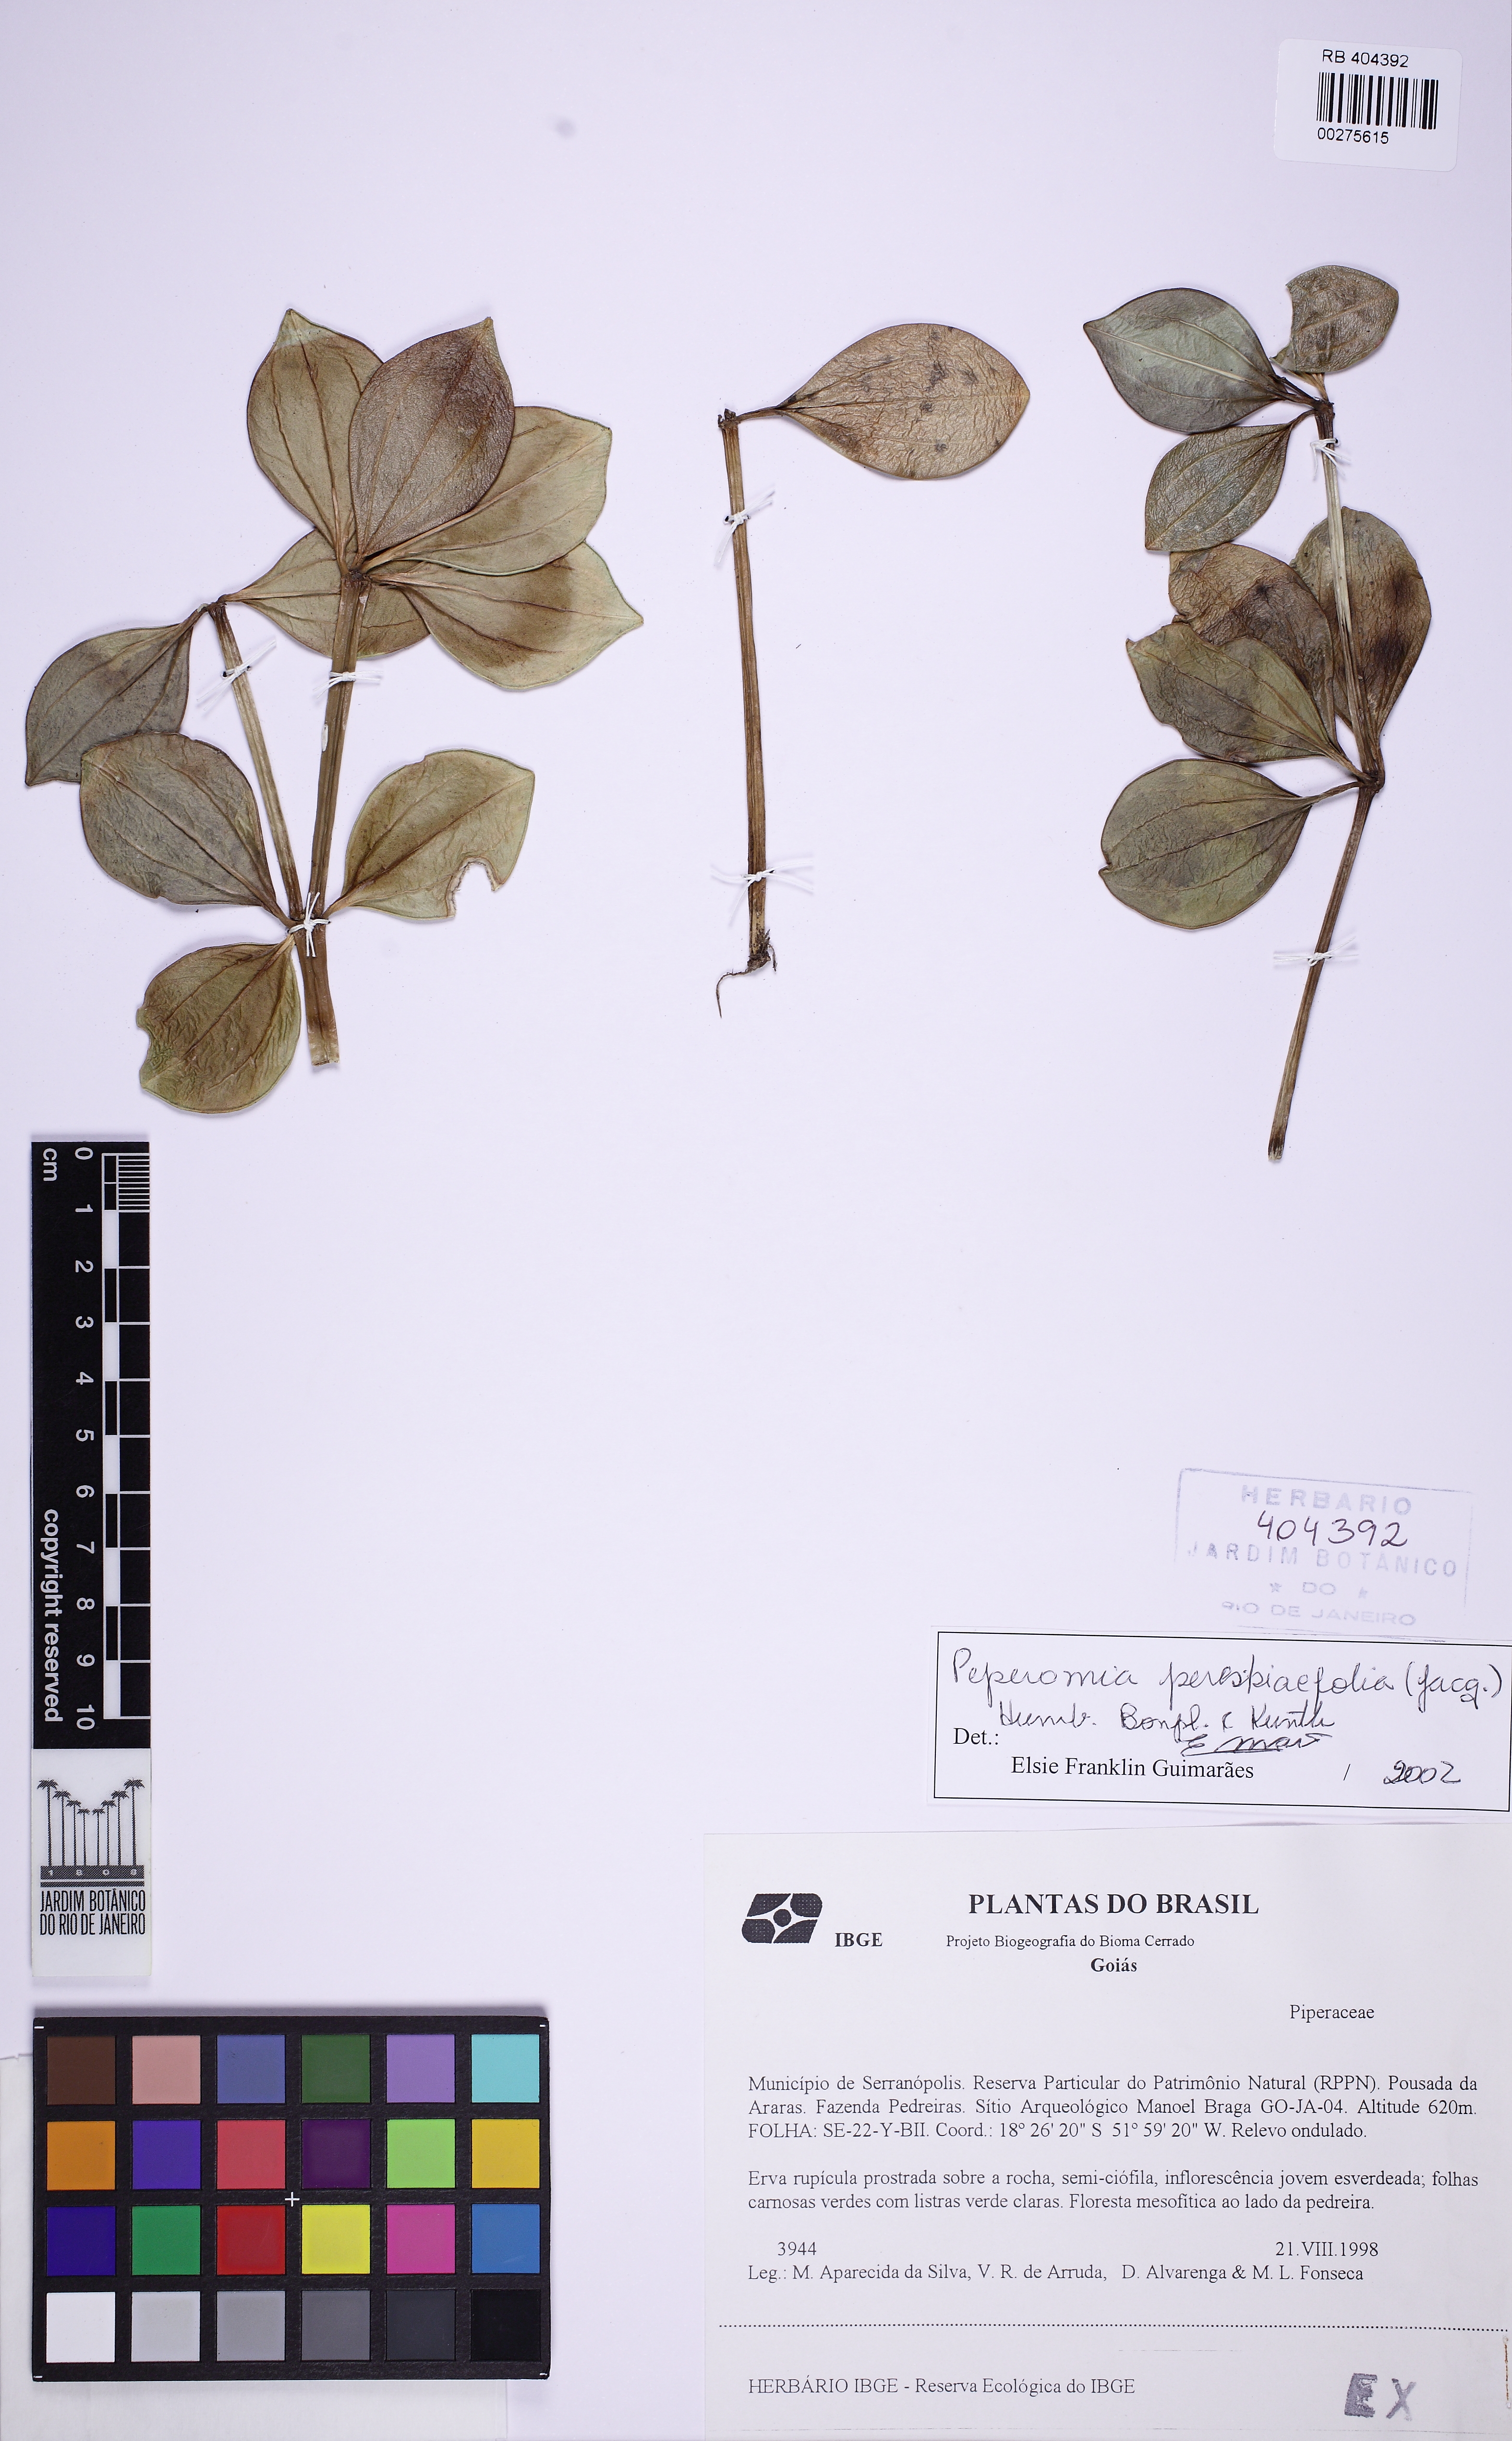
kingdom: Plantae
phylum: Tracheophyta
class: Magnoliopsida
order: Piperales
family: Piperaceae
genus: Peperomia
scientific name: Peperomia pereskiifolia
